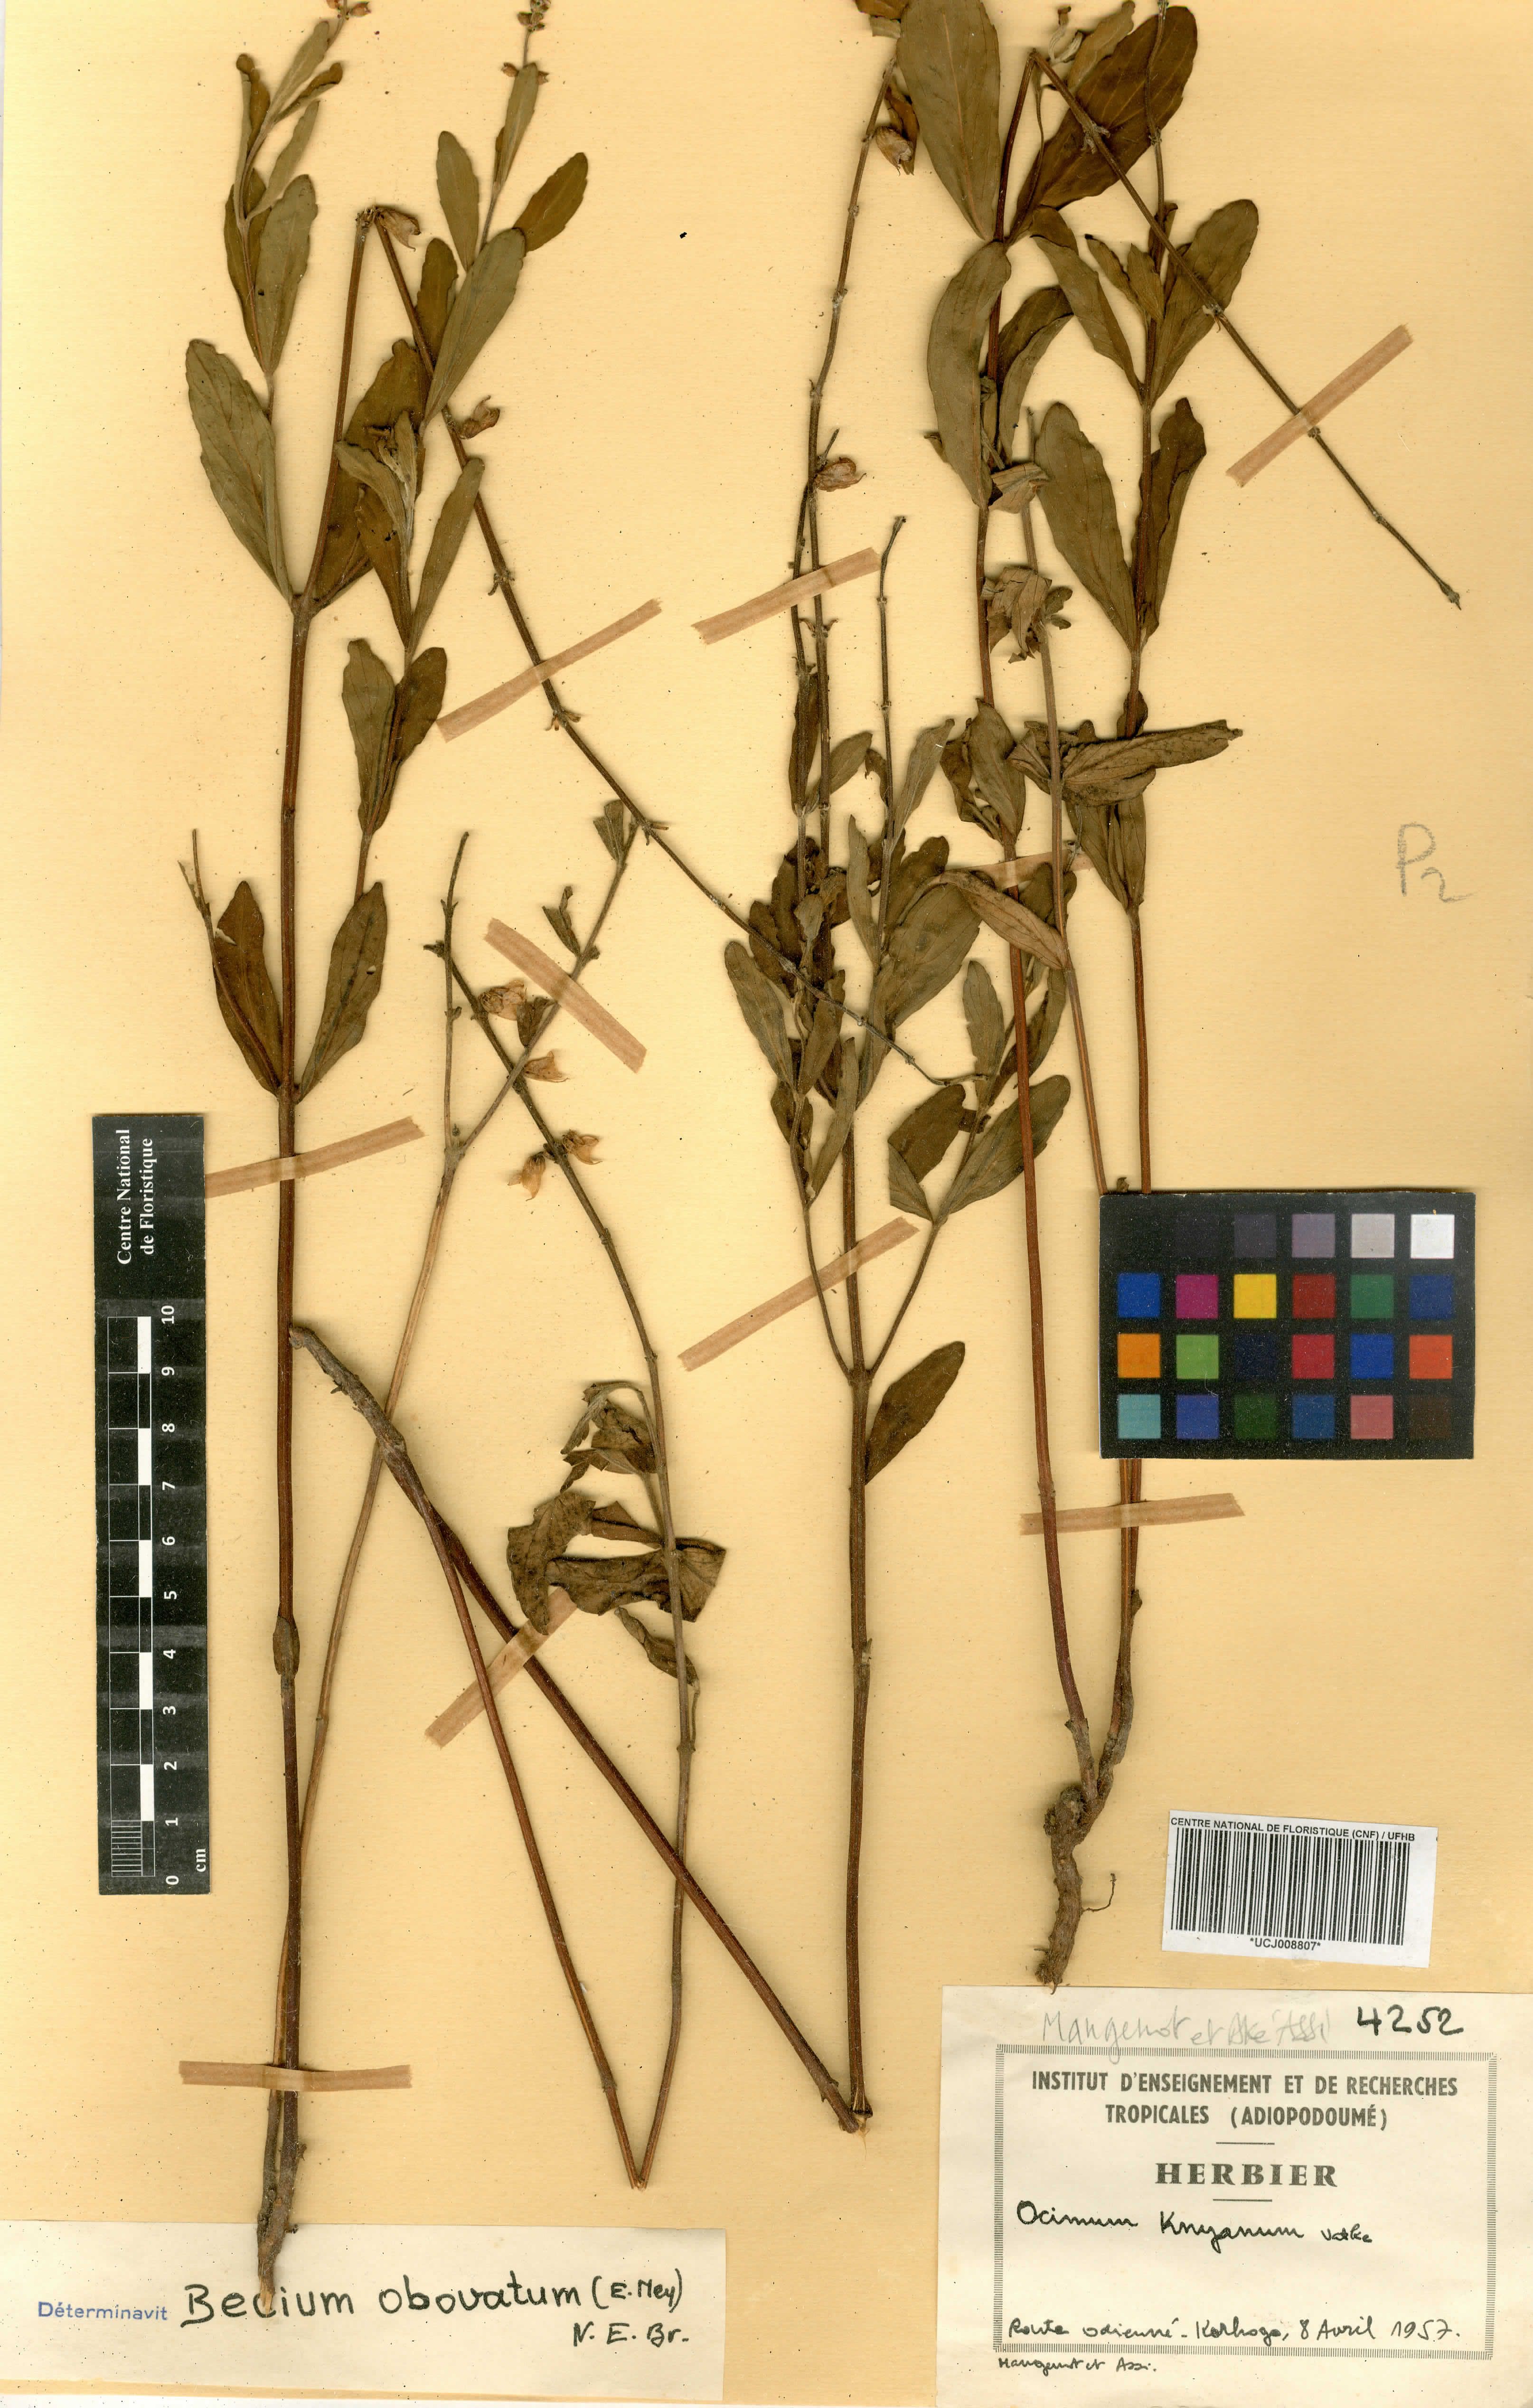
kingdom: Plantae
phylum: Tracheophyta
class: Magnoliopsida
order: Lamiales
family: Lamiaceae
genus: Ocimum
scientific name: Ocimum filamentosum
